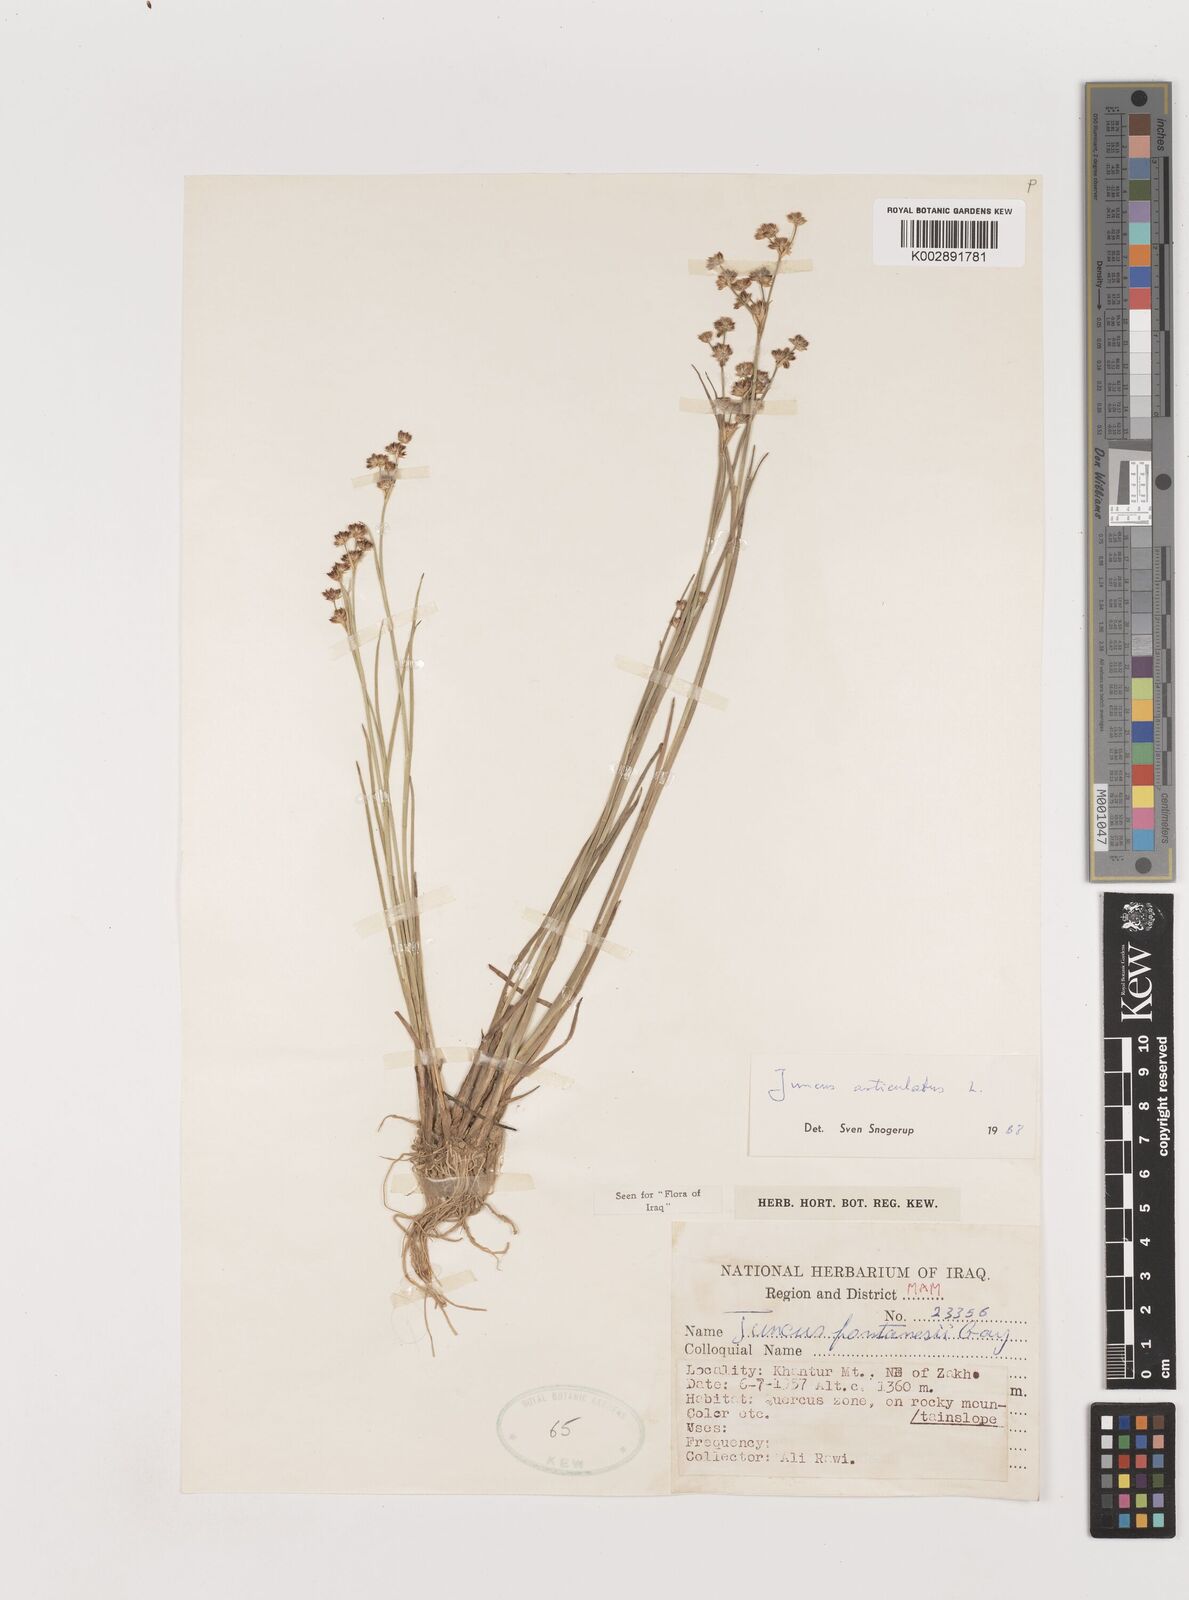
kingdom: Plantae
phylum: Tracheophyta
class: Liliopsida
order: Poales
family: Juncaceae
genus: Juncus
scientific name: Juncus articulatus
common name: Jointed rush
